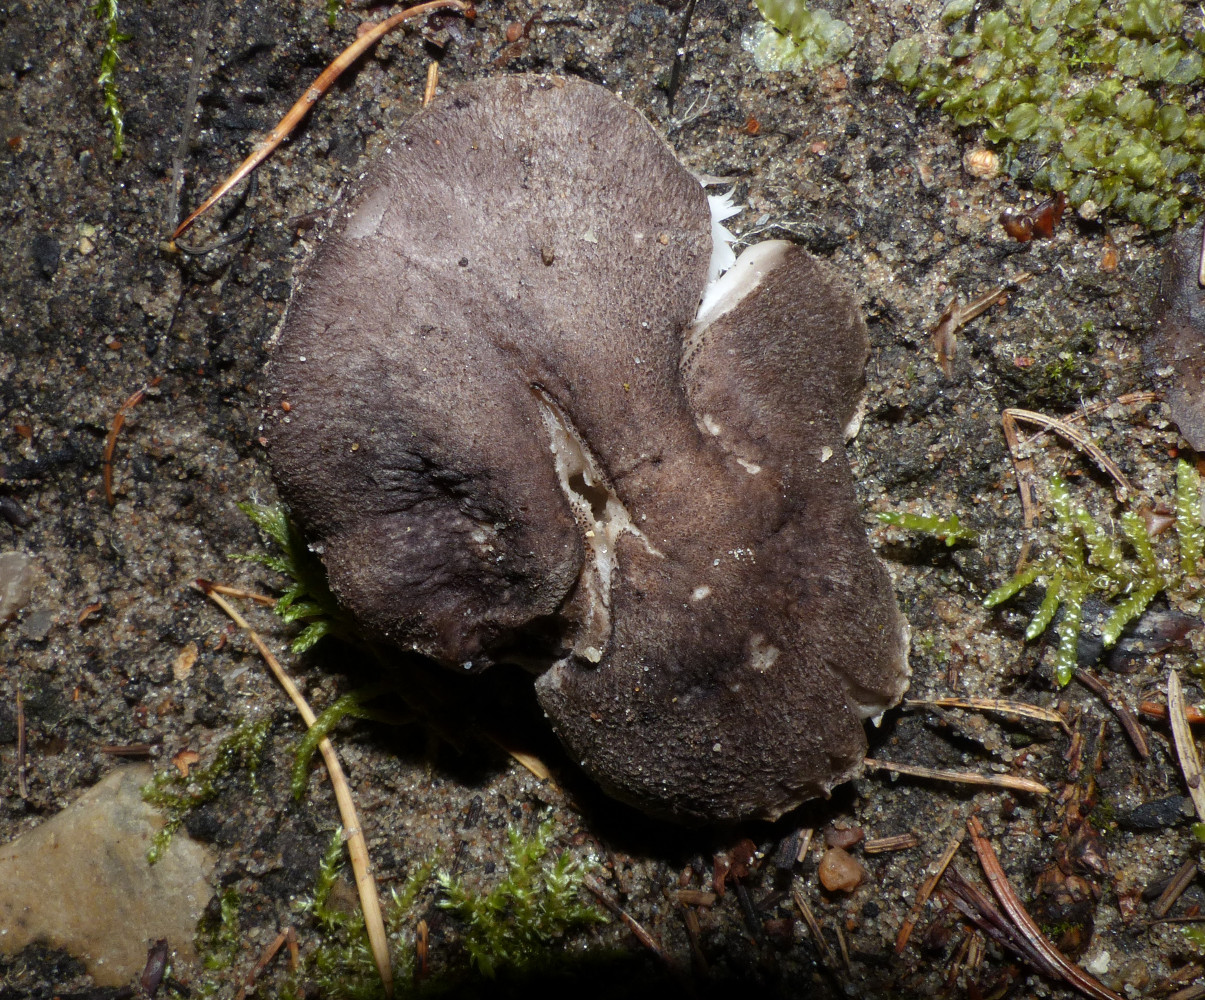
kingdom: Fungi
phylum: Basidiomycota
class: Agaricomycetes
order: Agaricales
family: Tricholomataceae
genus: Tricholoma
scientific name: Tricholoma terreum
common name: jordfarvet ridderhat
